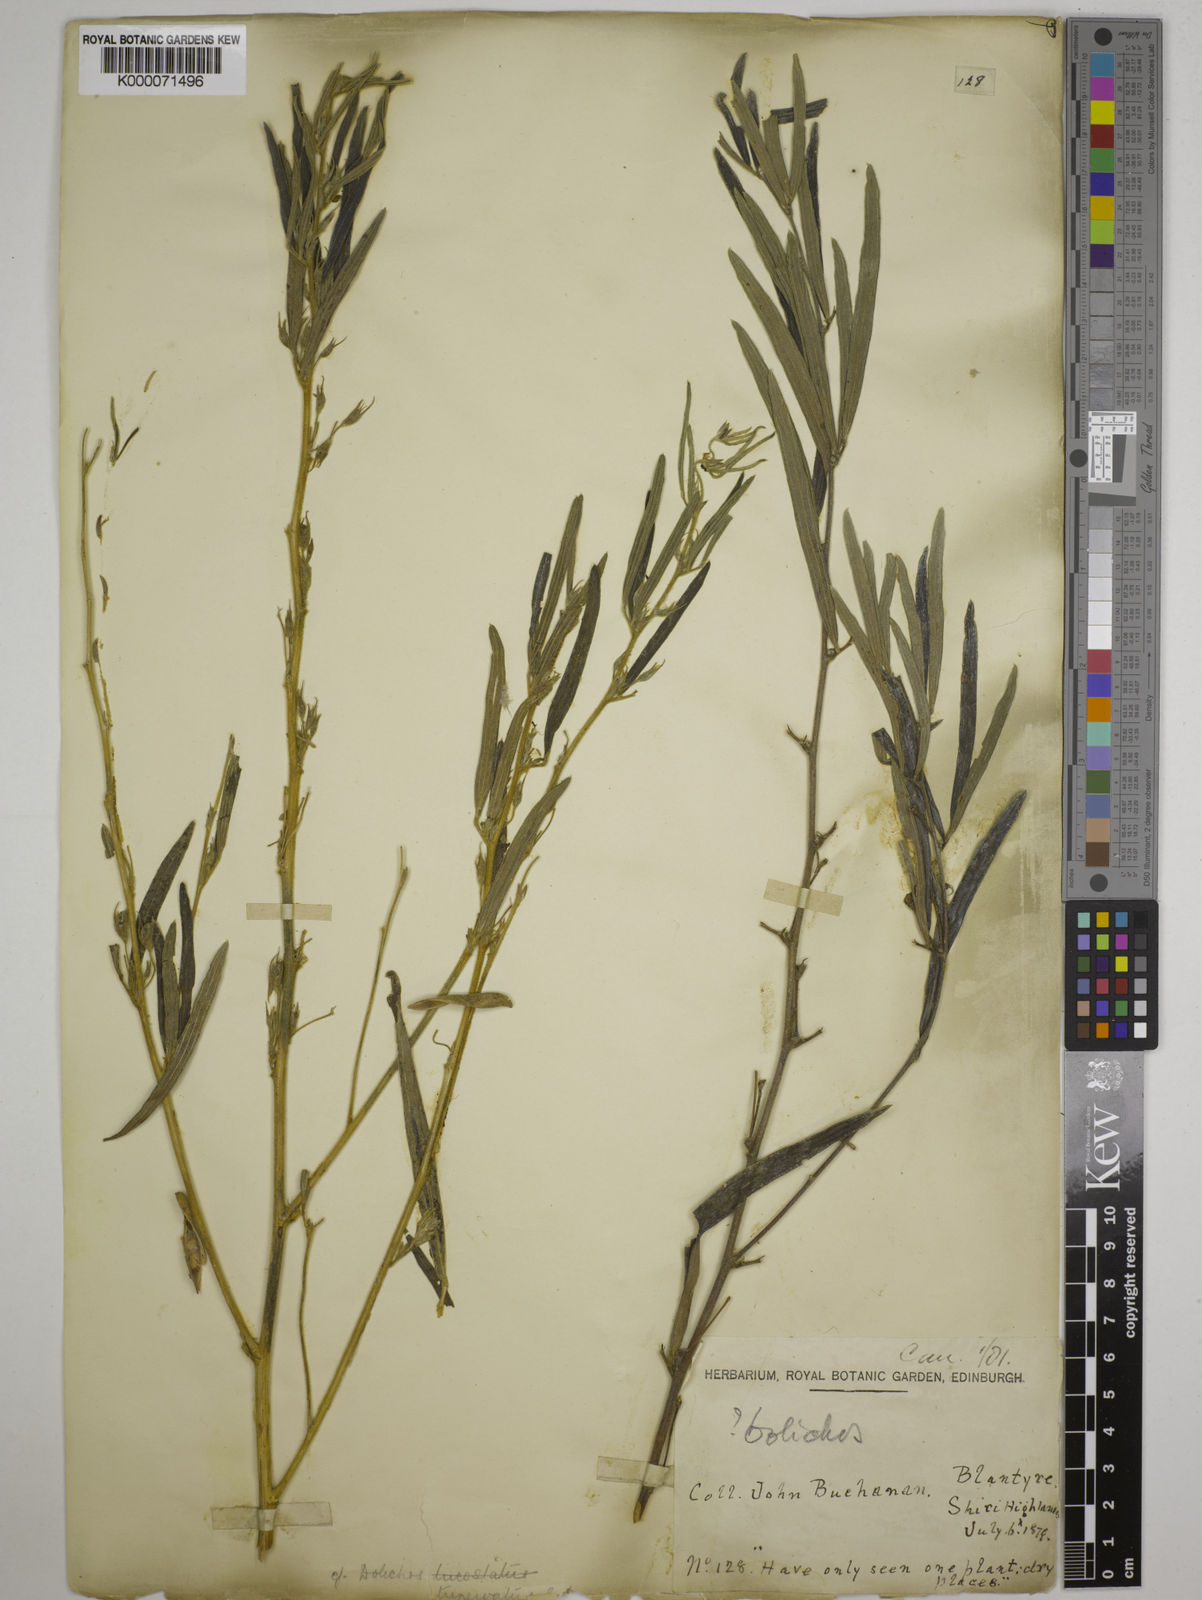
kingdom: Plantae
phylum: Tracheophyta
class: Magnoliopsida
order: Fabales
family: Fabaceae
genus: Dolichos
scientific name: Dolichos trinervatus
